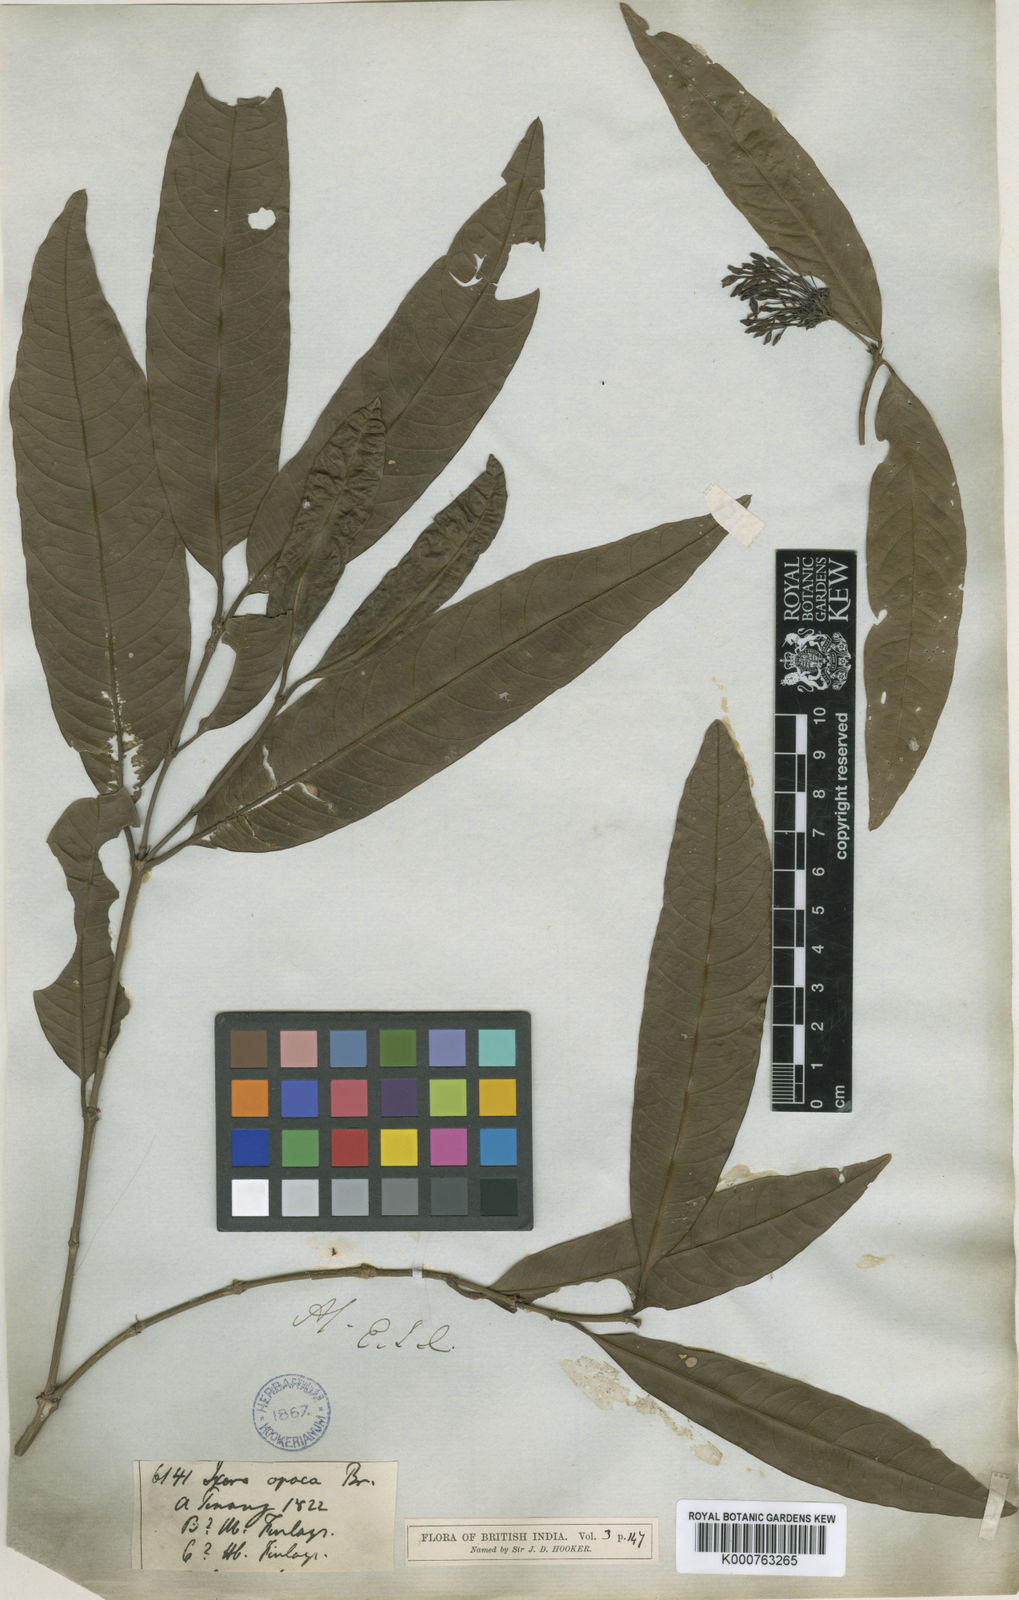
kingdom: Plantae
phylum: Tracheophyta
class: Magnoliopsida
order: Gentianales
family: Rubiaceae
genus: Ixora
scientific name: Ixora pendula
